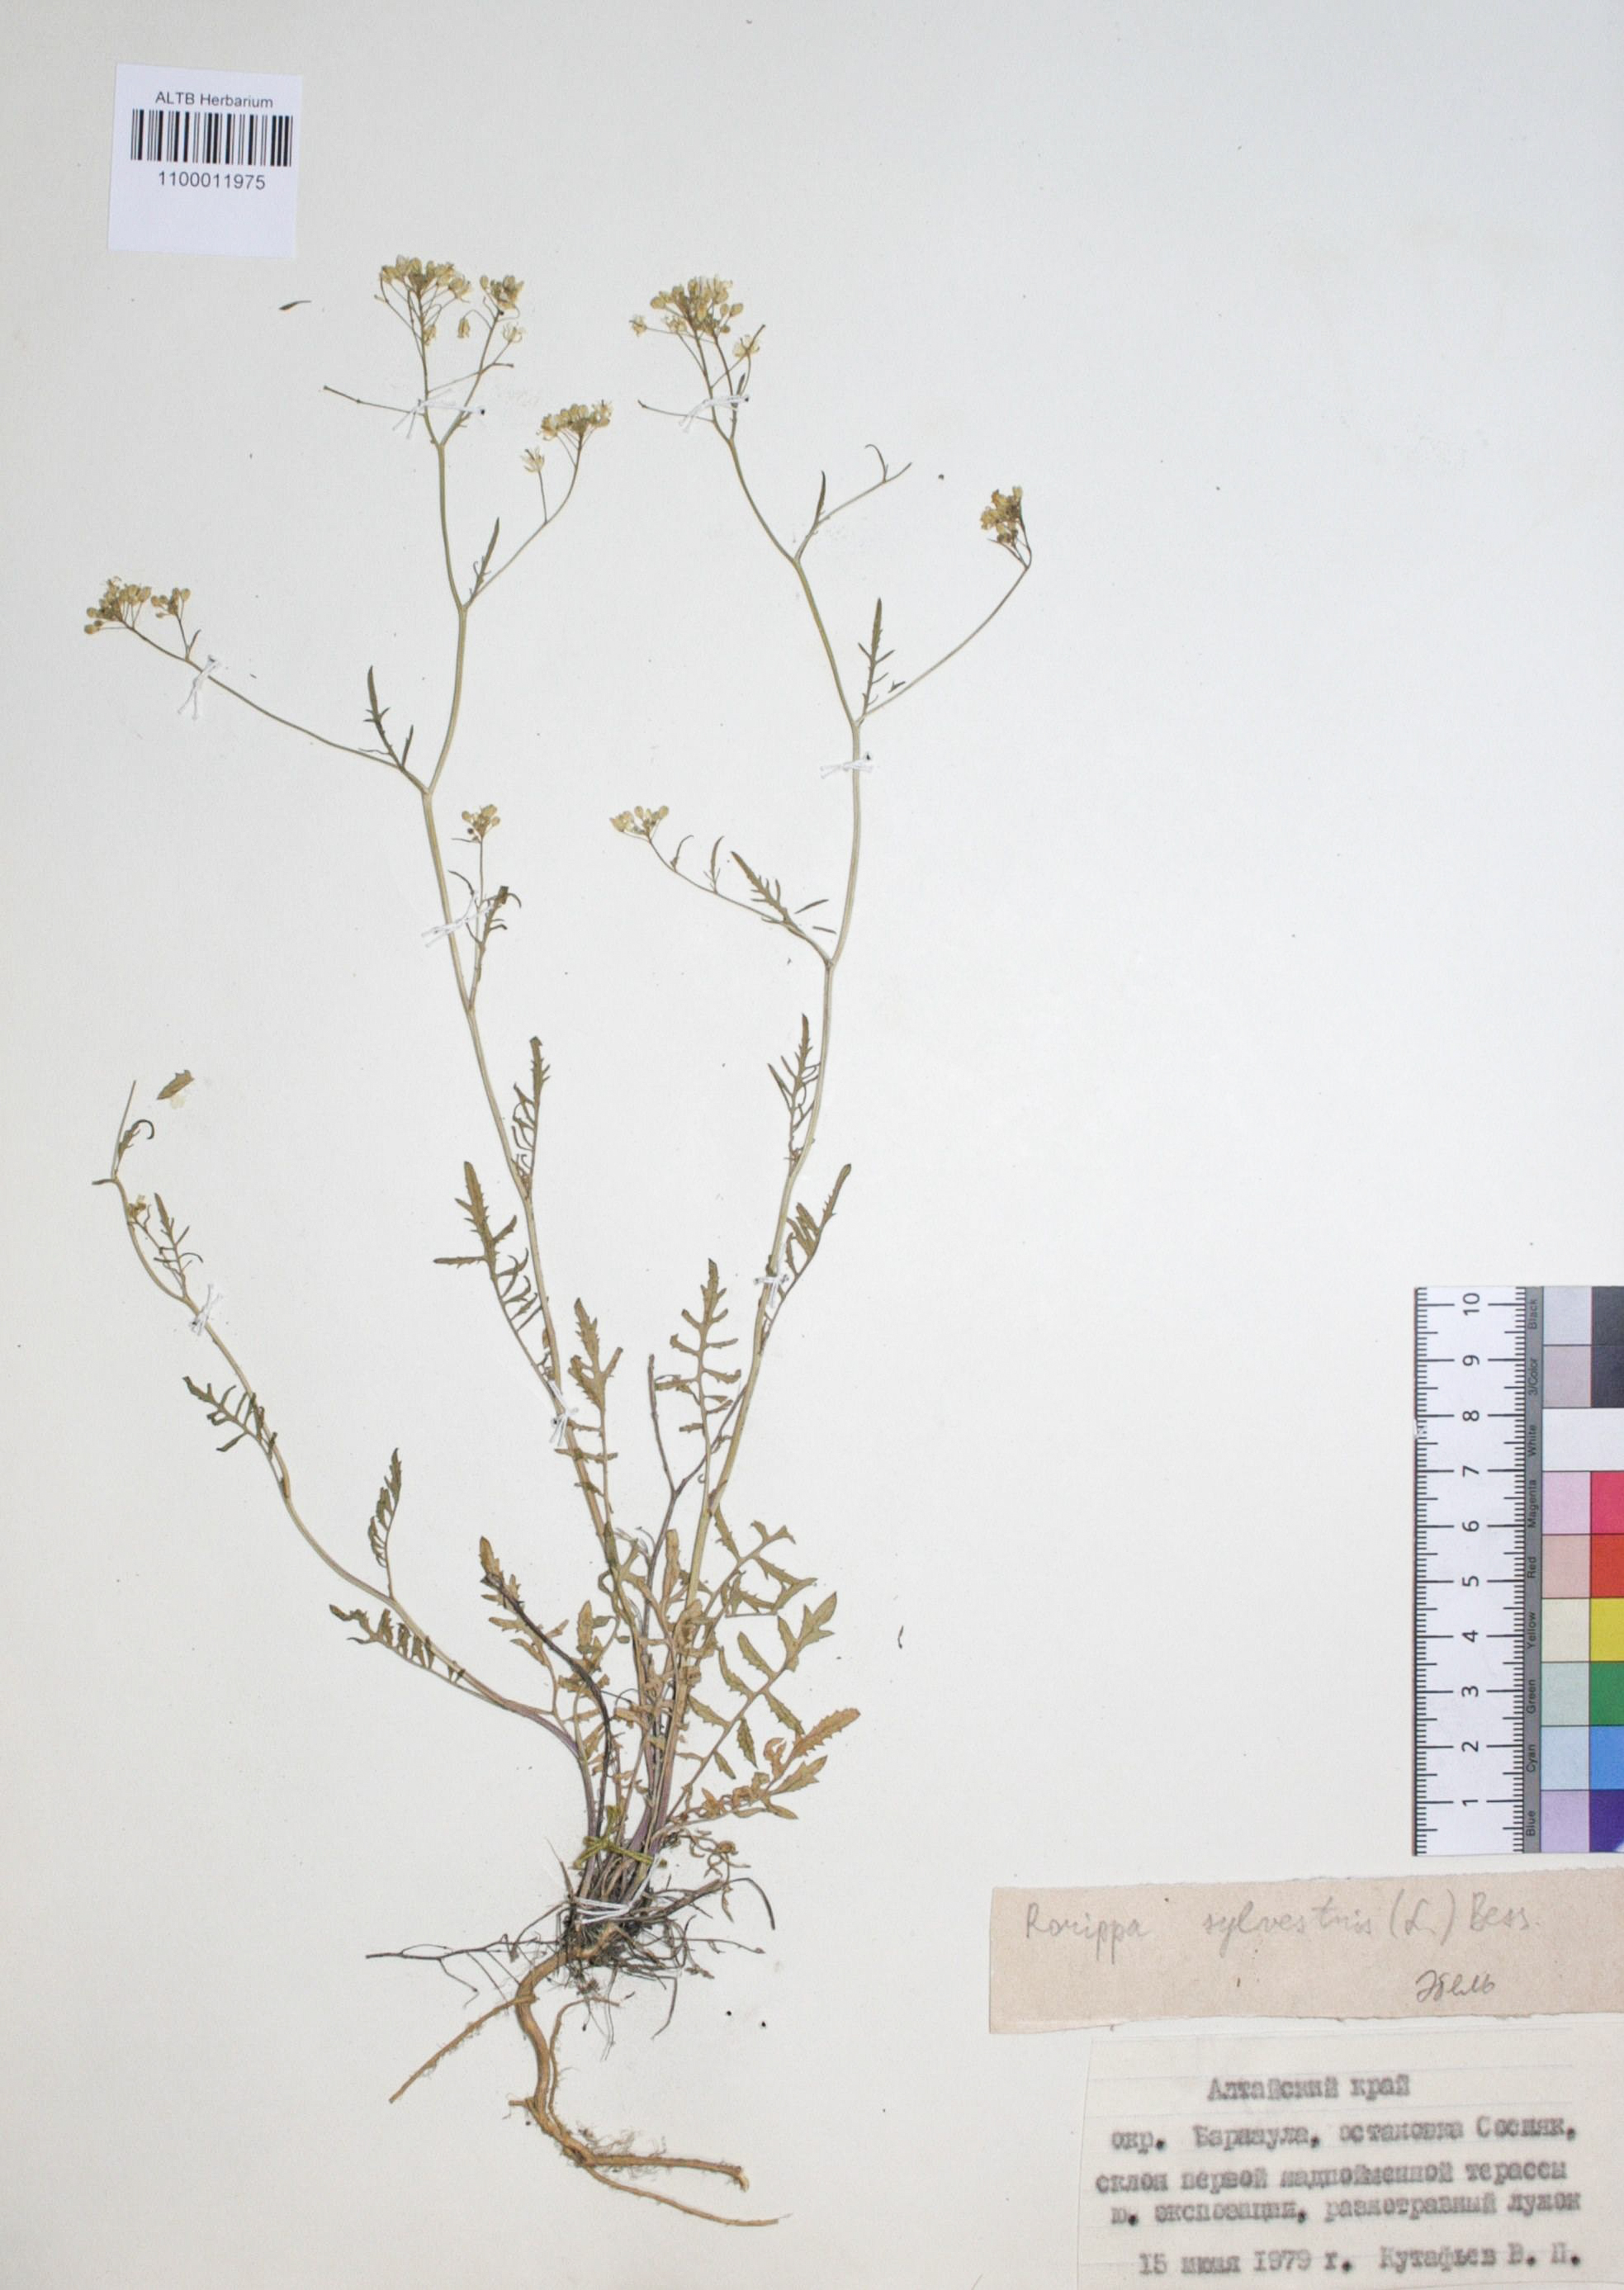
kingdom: Plantae
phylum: Tracheophyta
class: Magnoliopsida
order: Brassicales
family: Brassicaceae
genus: Rorippa
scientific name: Rorippa sylvestris
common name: Creeping yellowcress
